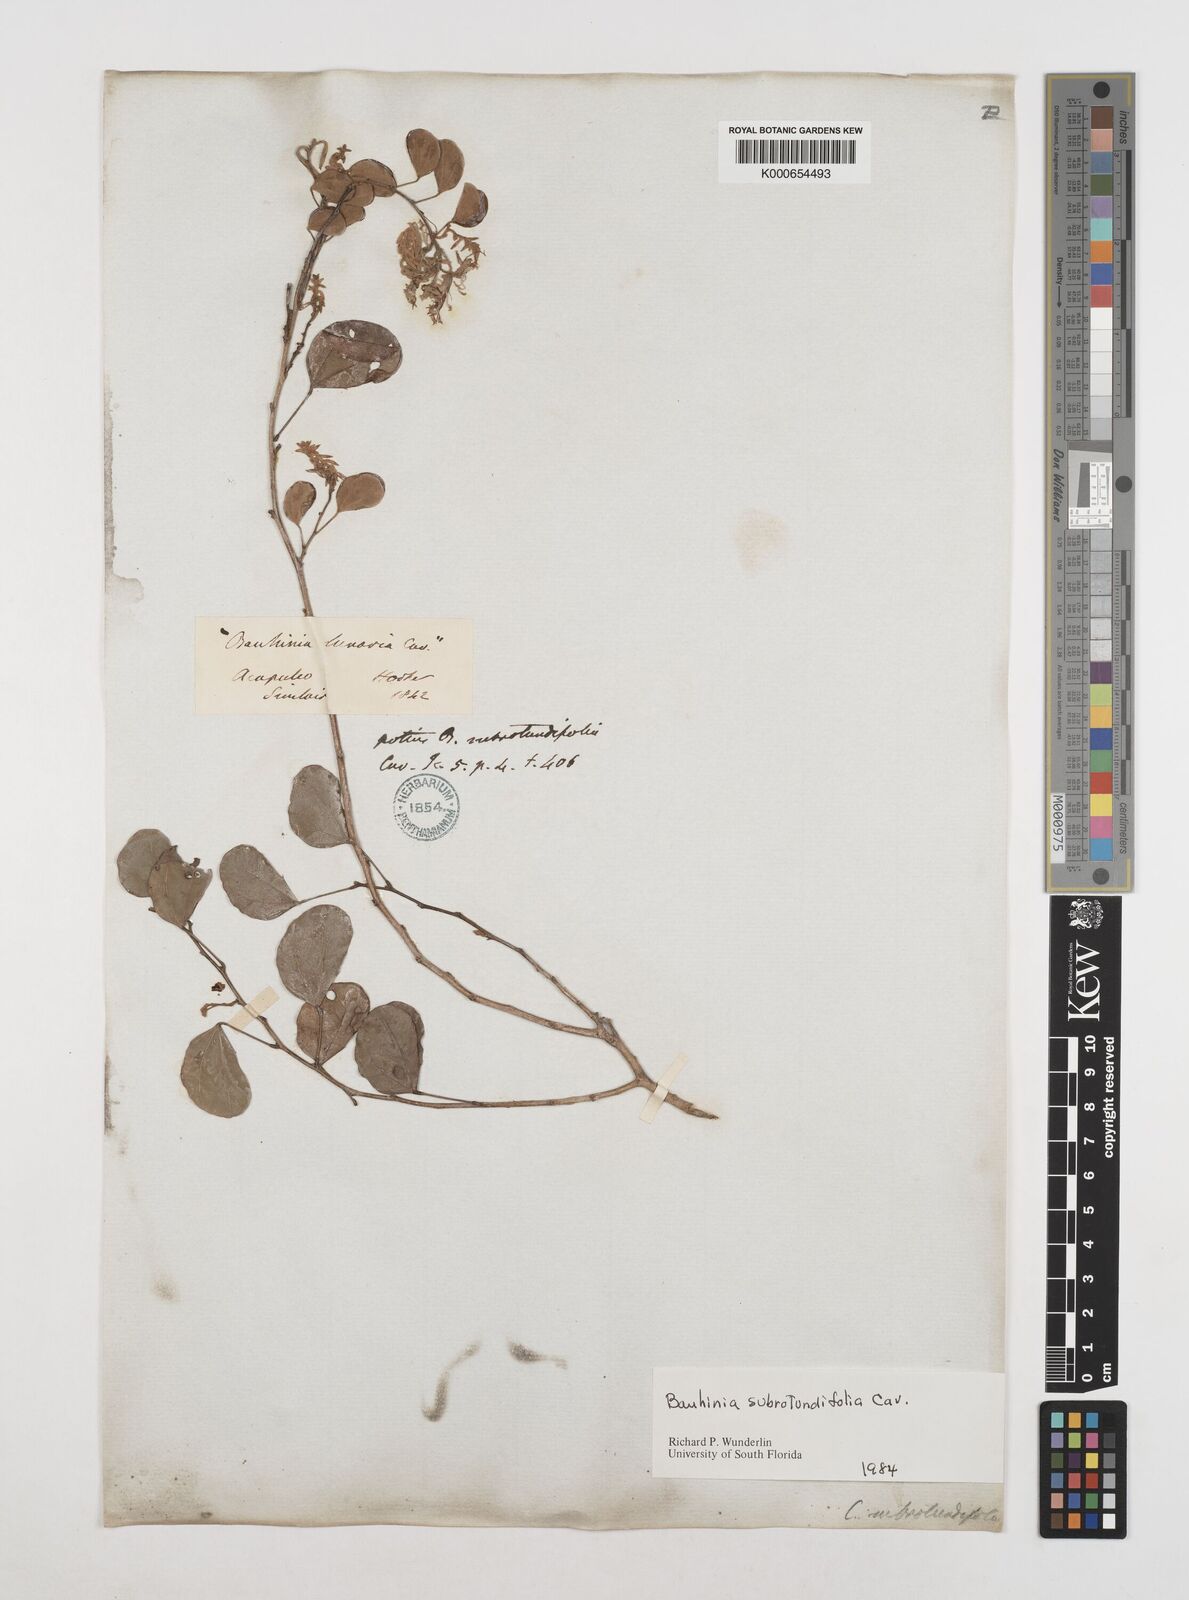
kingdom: Plantae
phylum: Tracheophyta
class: Magnoliopsida
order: Fabales
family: Fabaceae
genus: Bauhinia
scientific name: Bauhinia subrotundifolia
